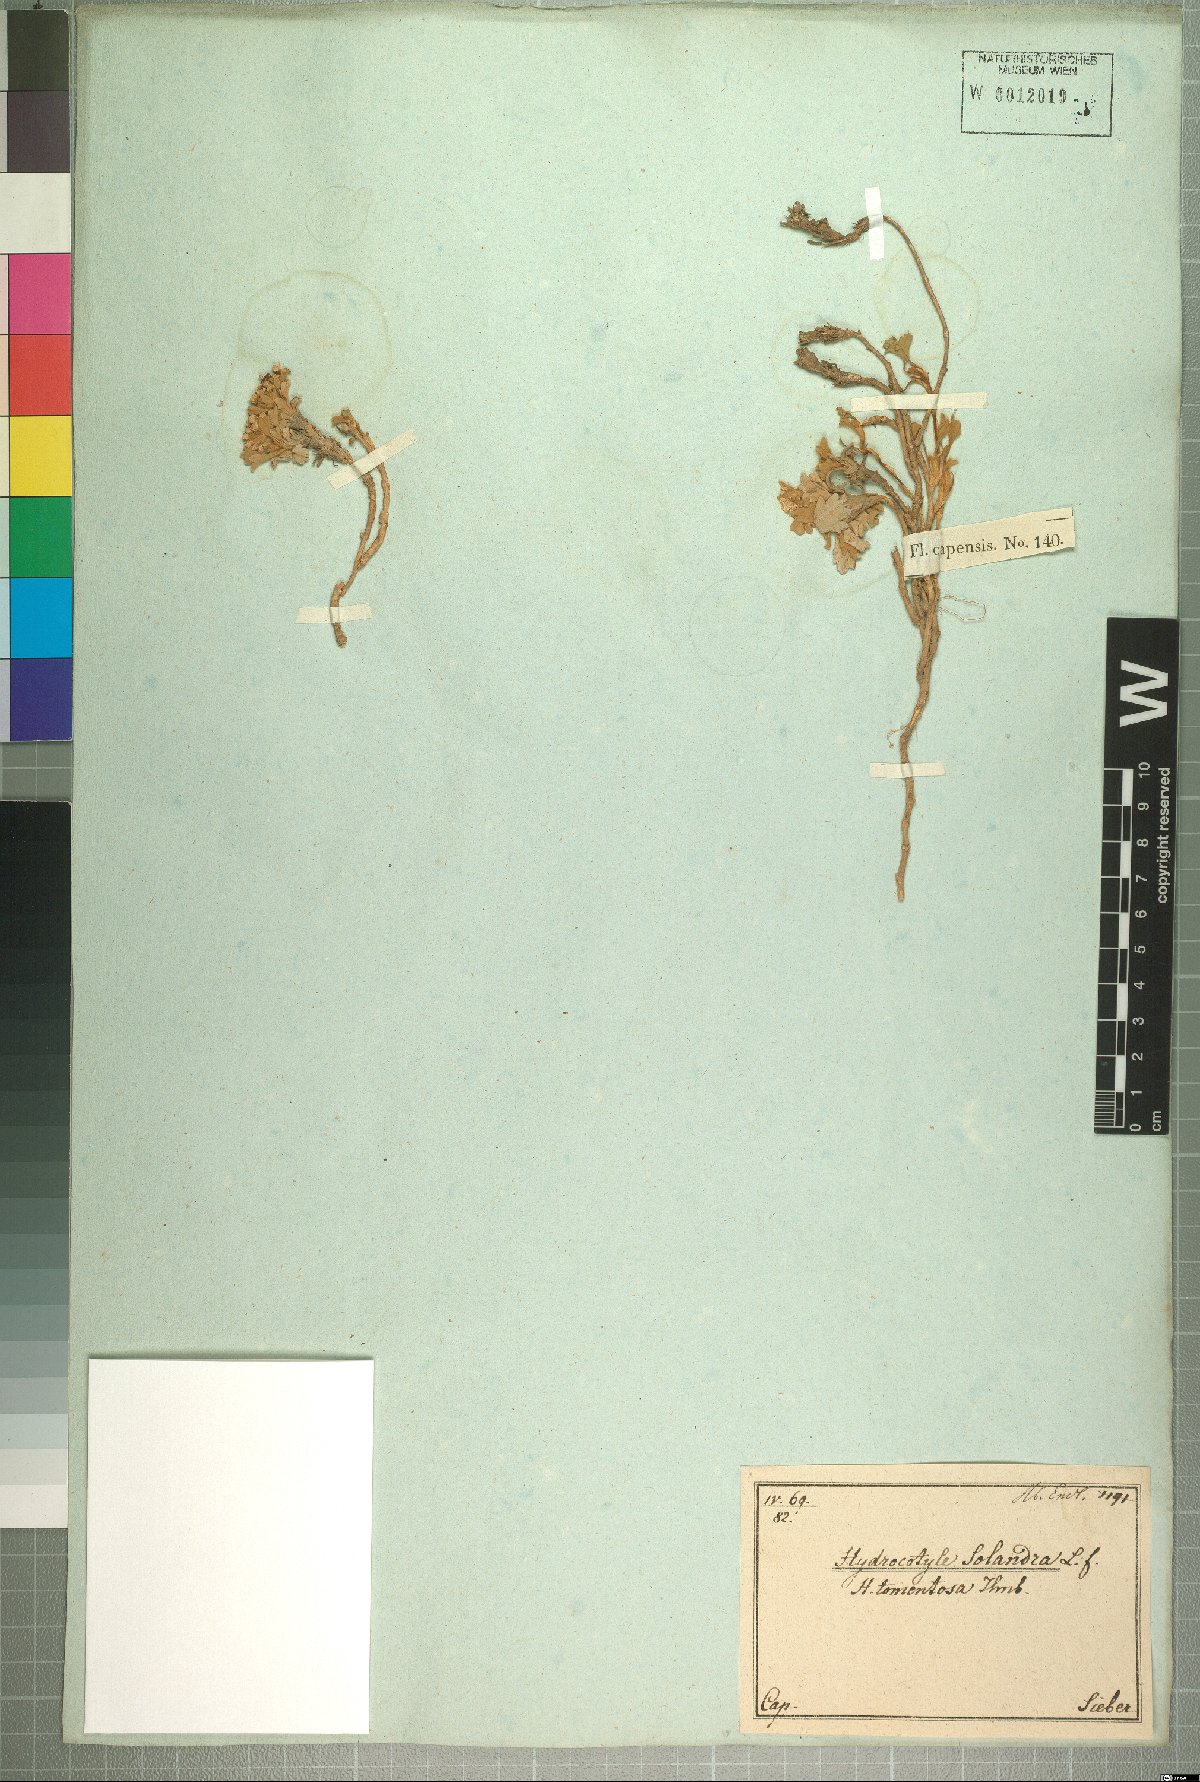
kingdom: Plantae
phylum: Tracheophyta
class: Magnoliopsida
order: Apiales
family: Apiaceae
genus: Centella
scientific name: Centella capensis
